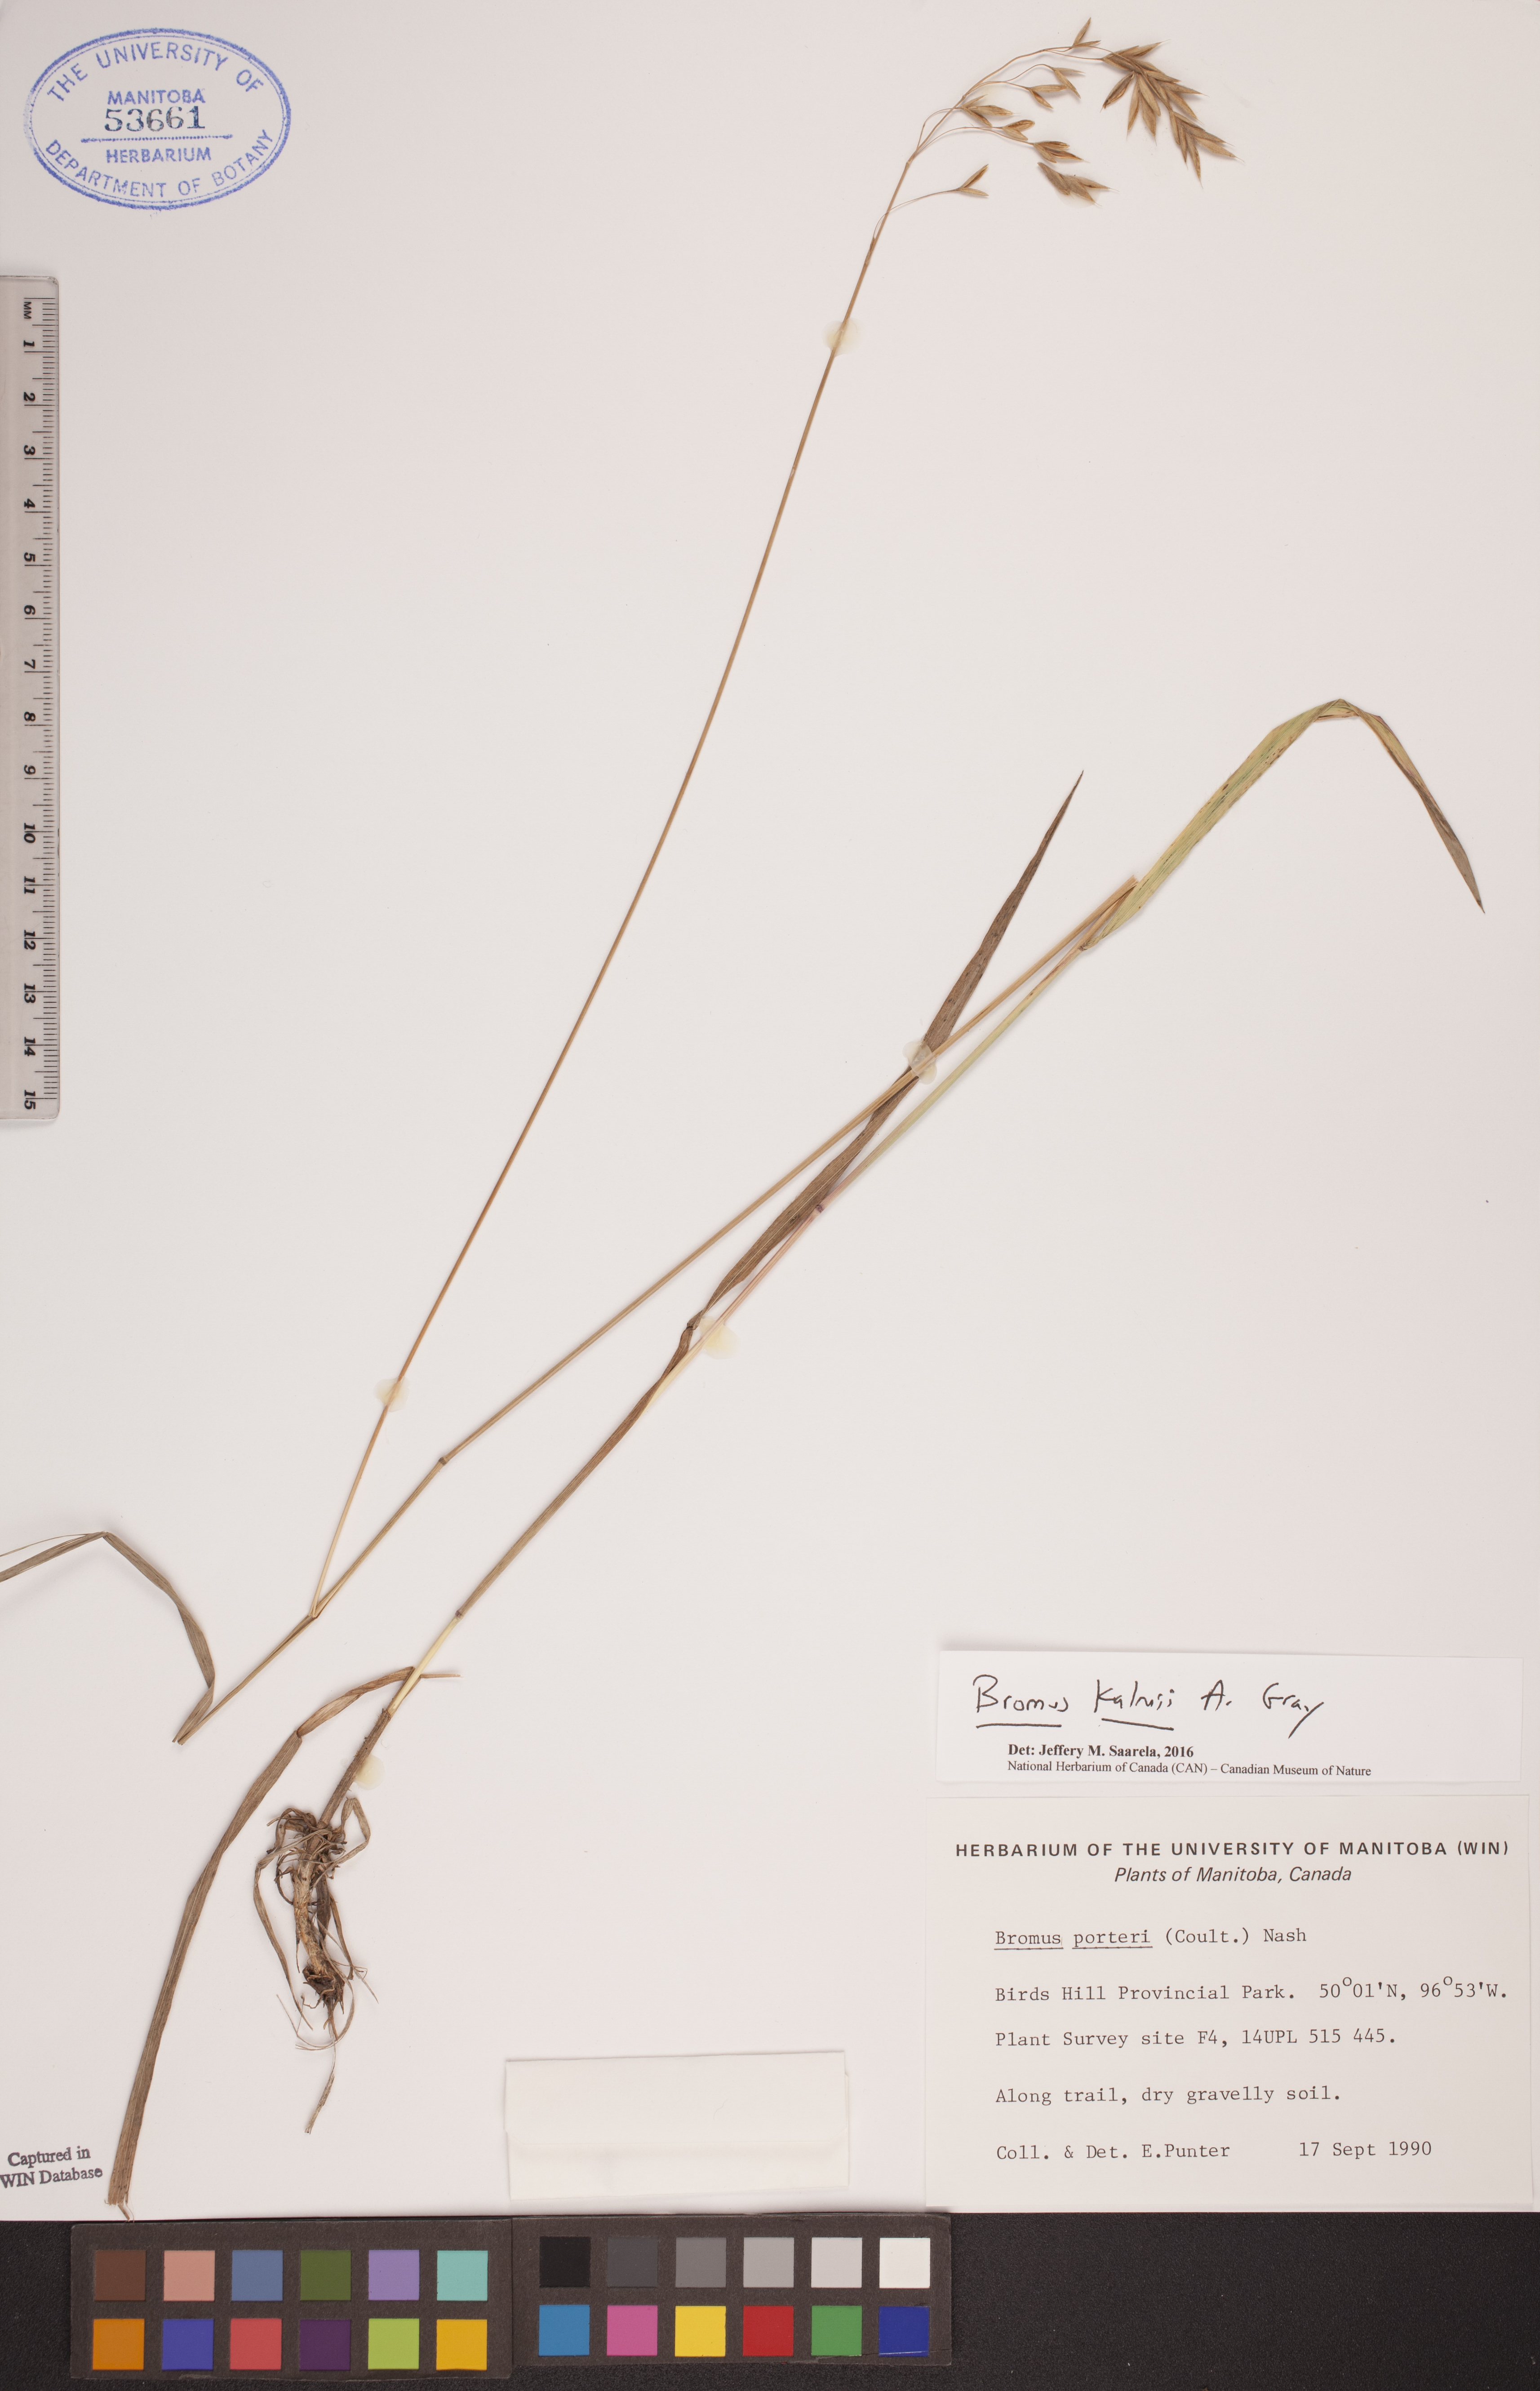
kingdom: Plantae
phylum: Tracheophyta
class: Liliopsida
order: Poales
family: Poaceae
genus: Bromus
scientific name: Bromus kalmii
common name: Kalm brome
